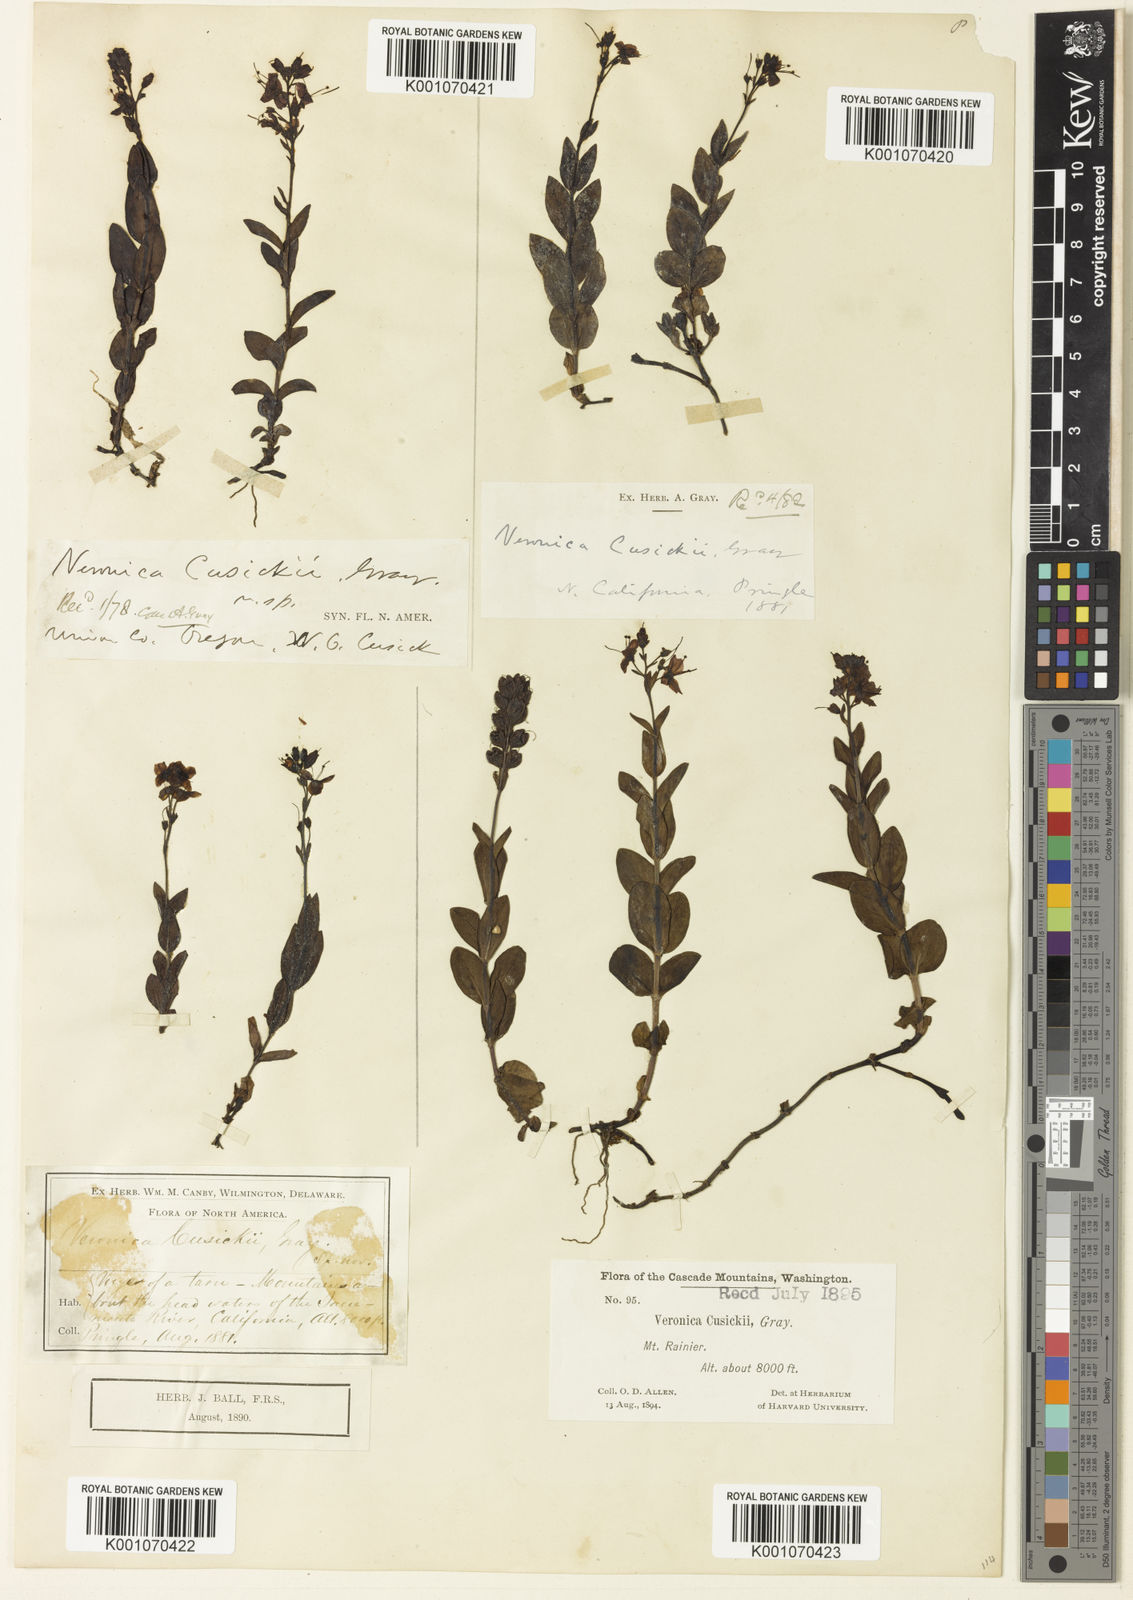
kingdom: Plantae
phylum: Tracheophyta
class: Magnoliopsida
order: Lamiales
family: Plantaginaceae
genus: Veronica
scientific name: Veronica cusickii
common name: Cusick's speedwell
